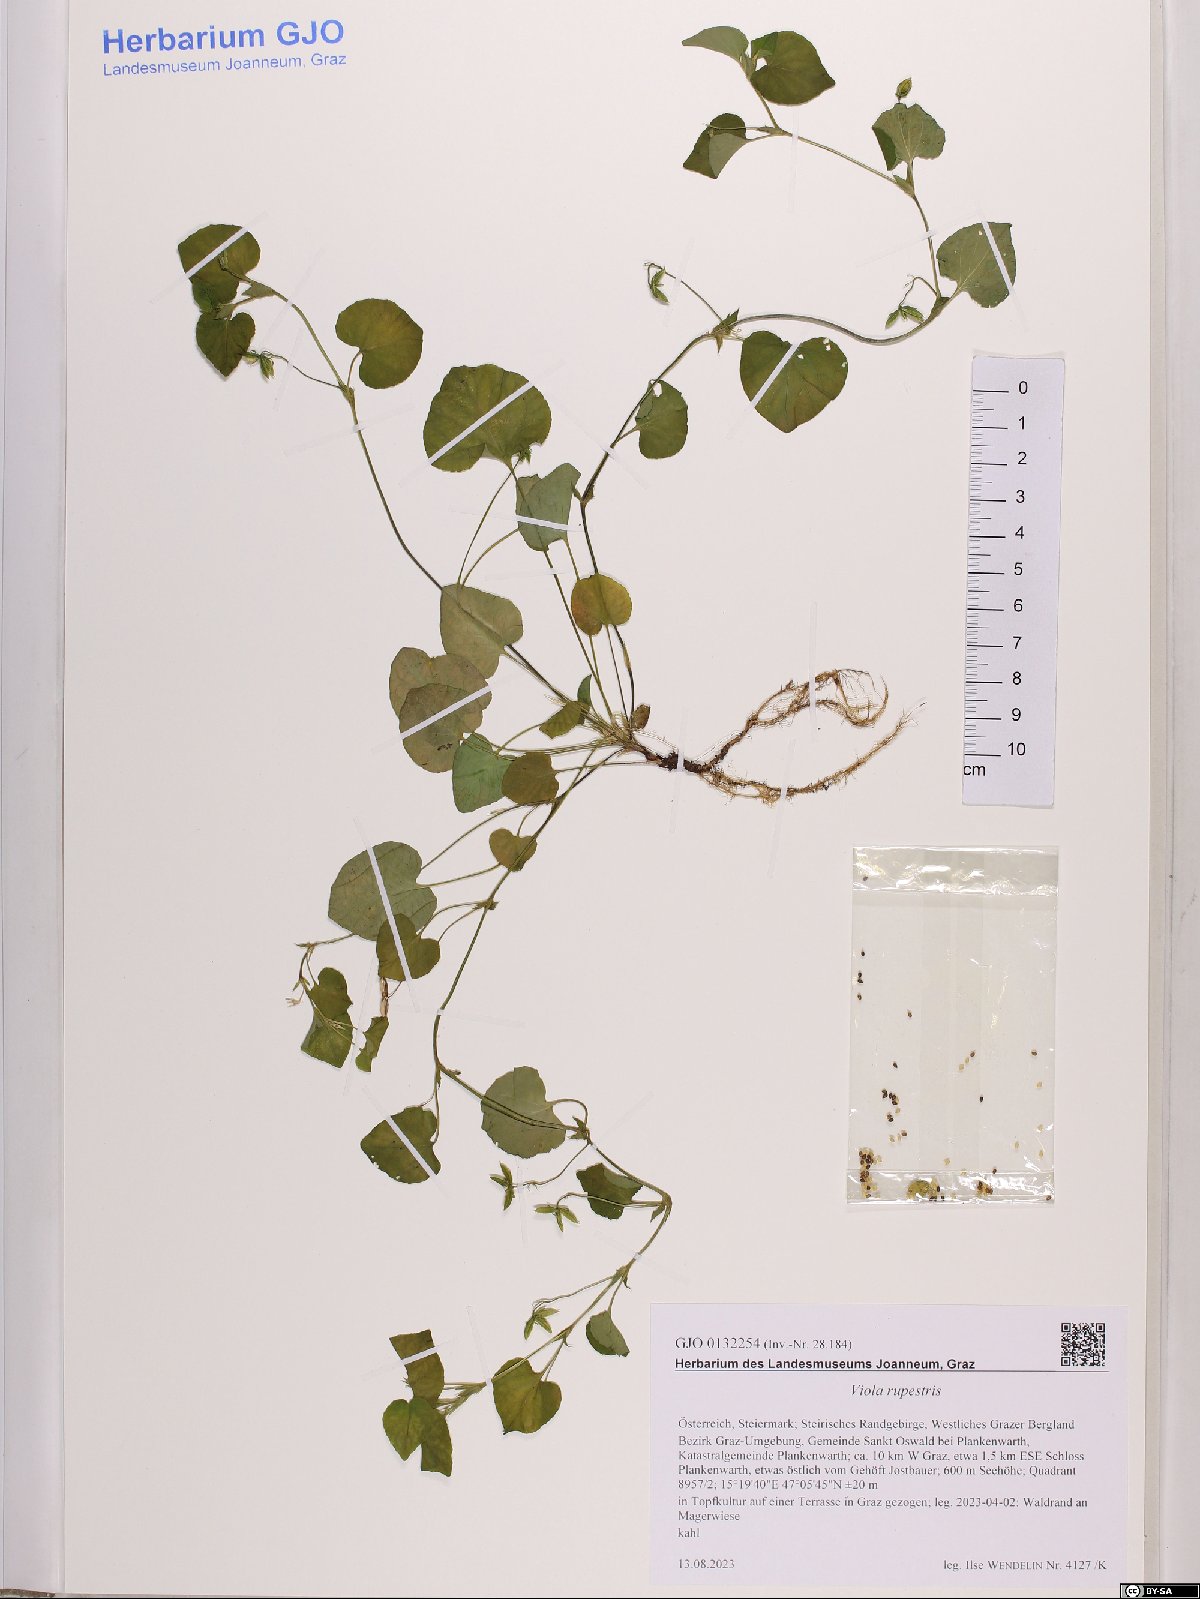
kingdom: Plantae
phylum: Tracheophyta
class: Magnoliopsida
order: Malpighiales
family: Violaceae
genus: Viola
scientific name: Viola rupestris
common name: Teesdale violet
